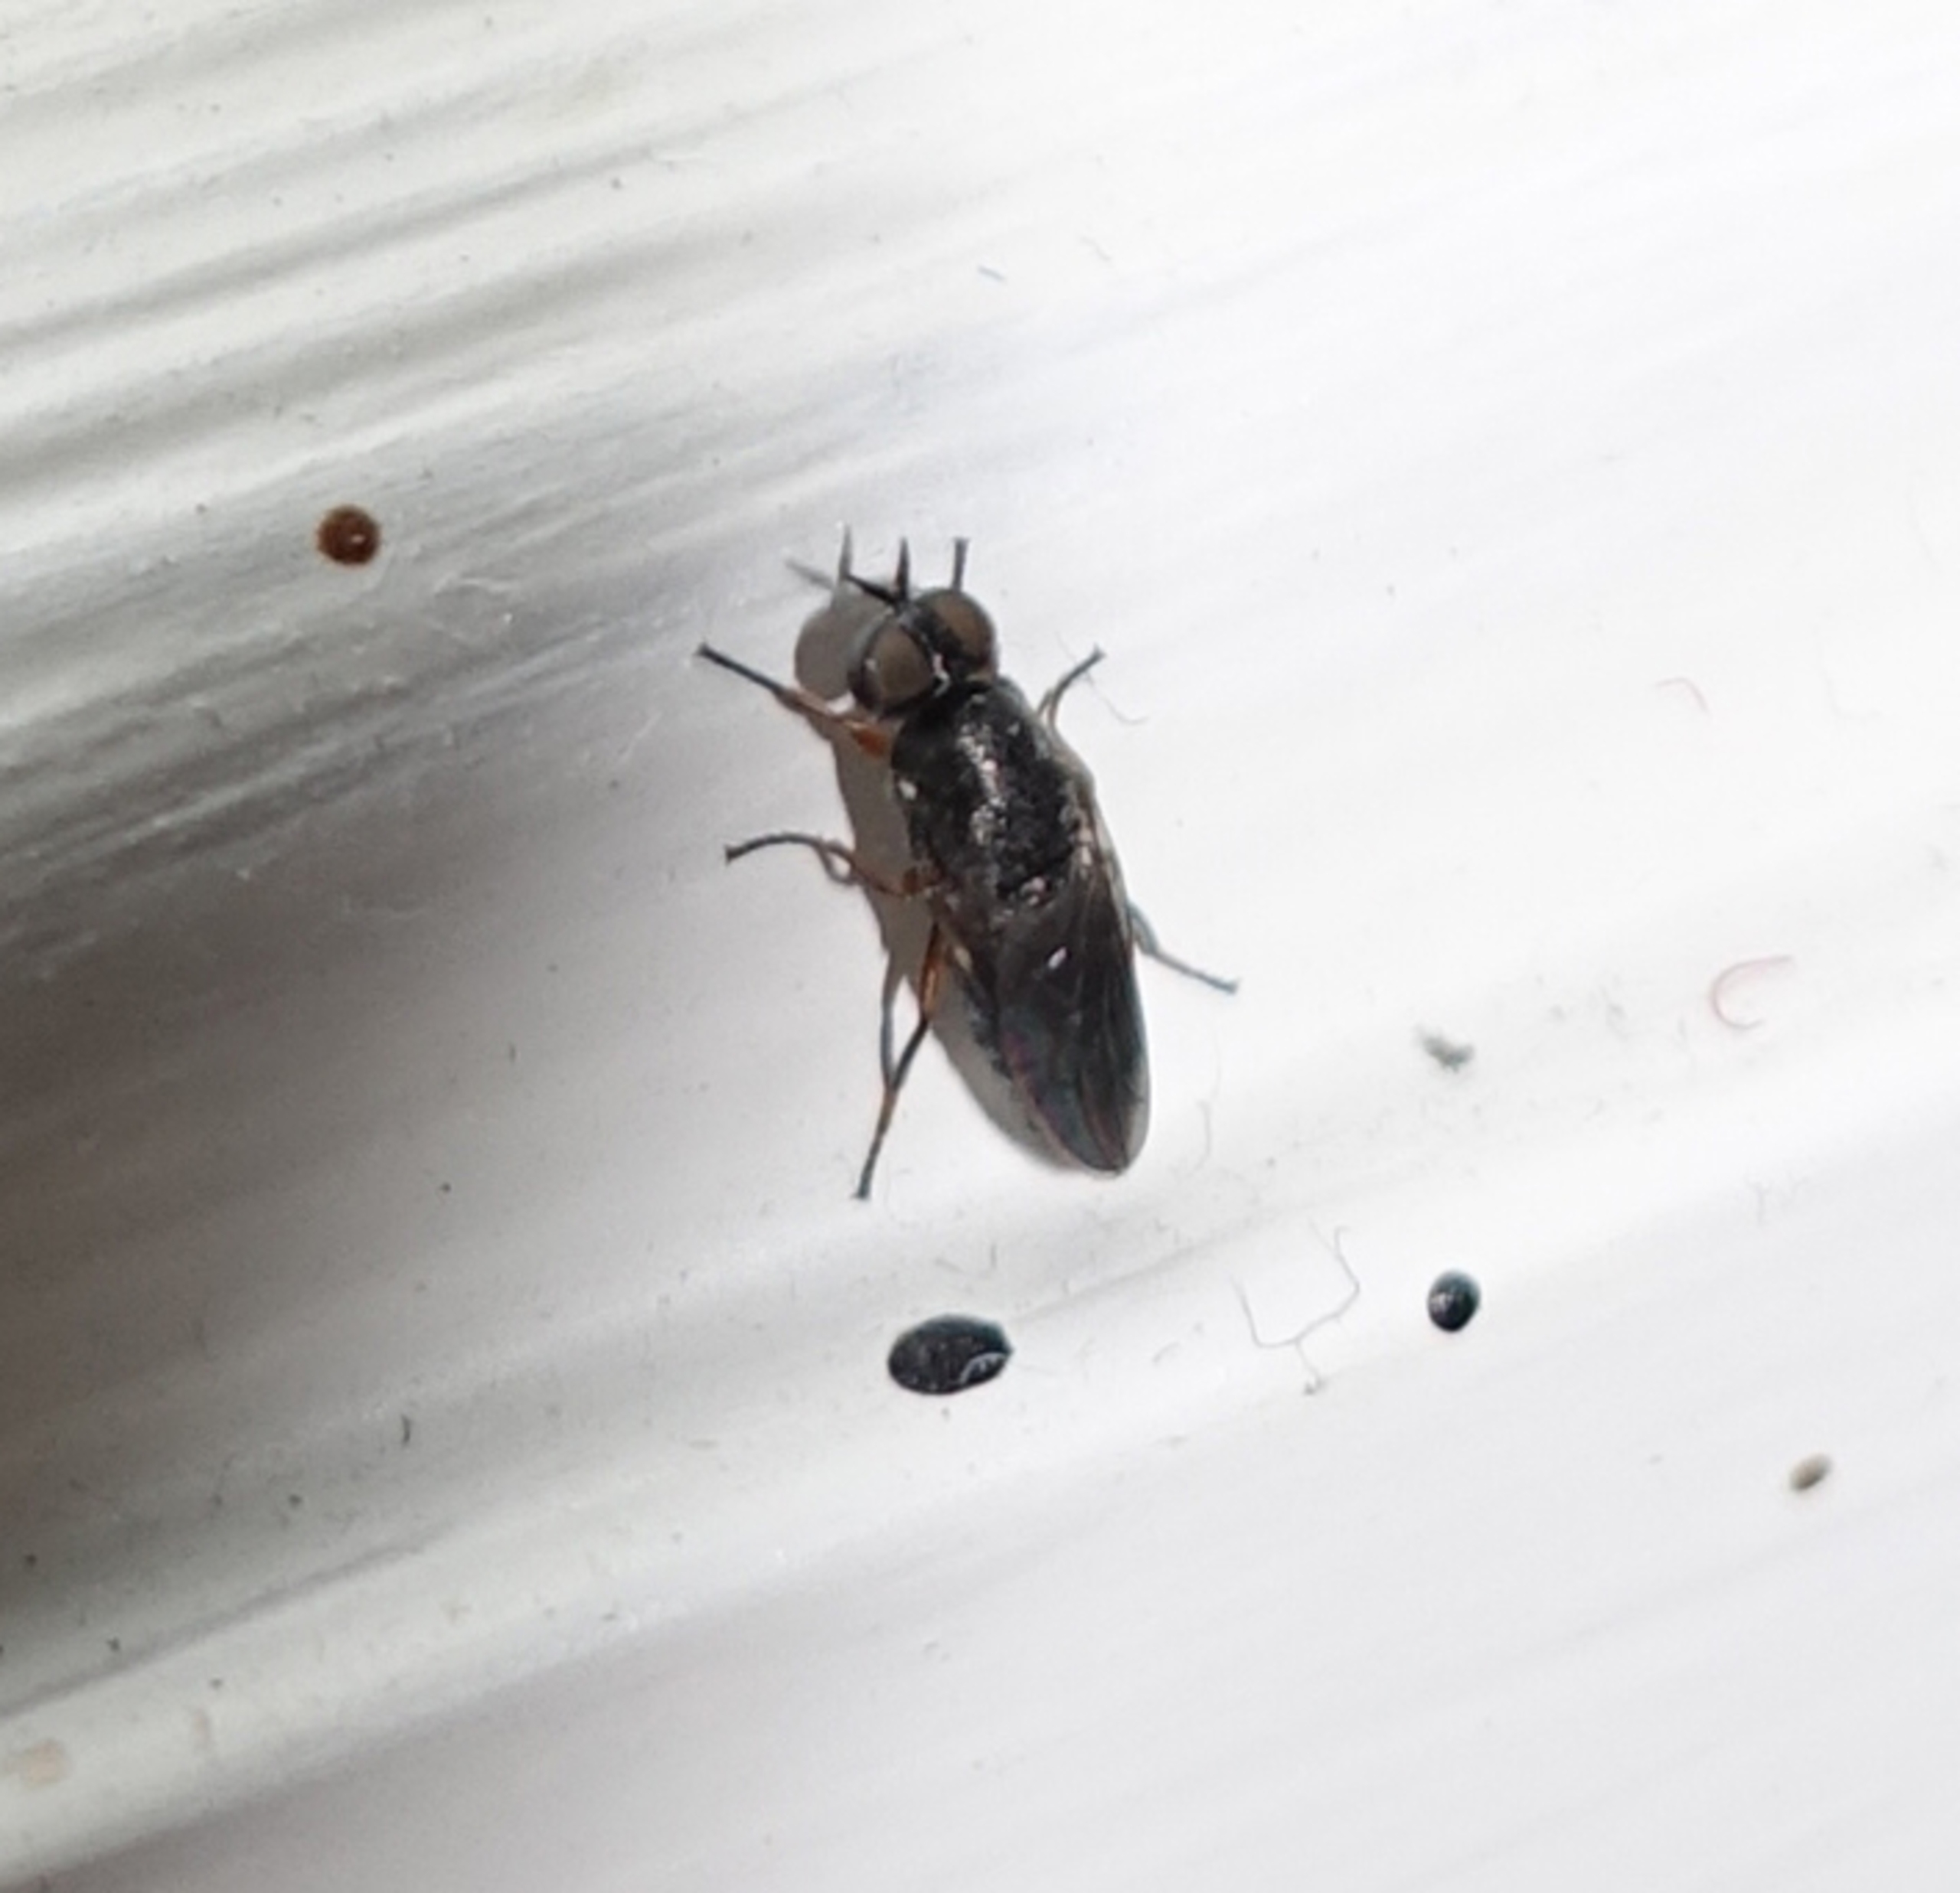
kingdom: Animalia
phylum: Arthropoda
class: Insecta
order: Diptera
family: Scenopinidae
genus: Scenopinus
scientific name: Scenopinus fenestralis
